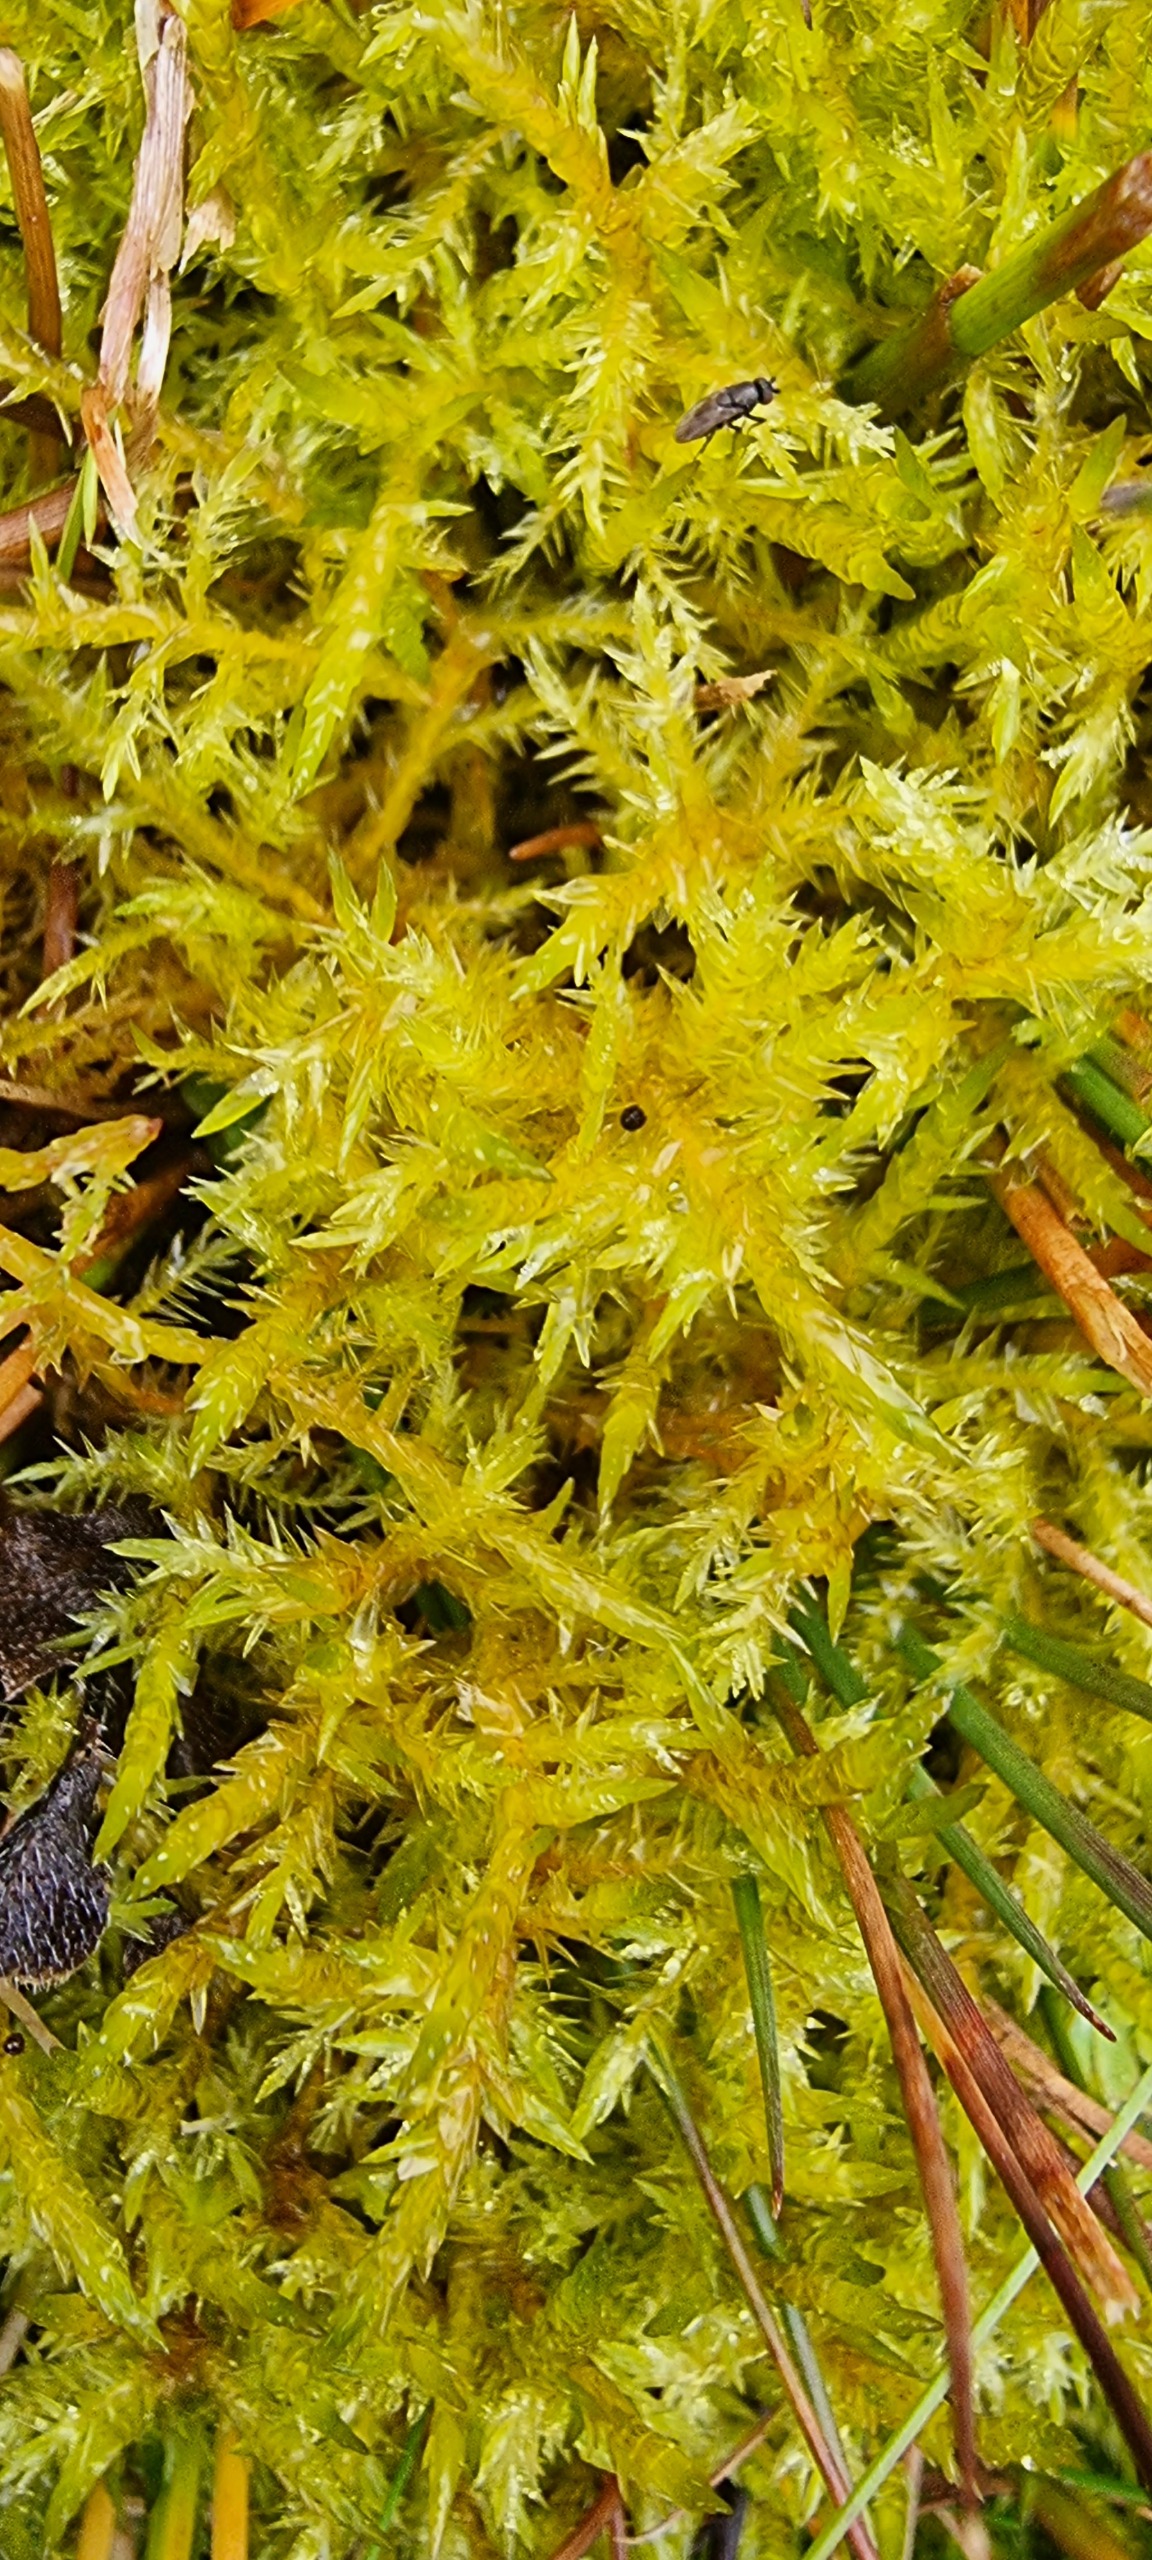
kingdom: Plantae
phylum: Bryophyta
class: Bryopsida
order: Hypnales
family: Pylaisiaceae
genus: Calliergonella
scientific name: Calliergonella cuspidata
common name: Spids spydmos
